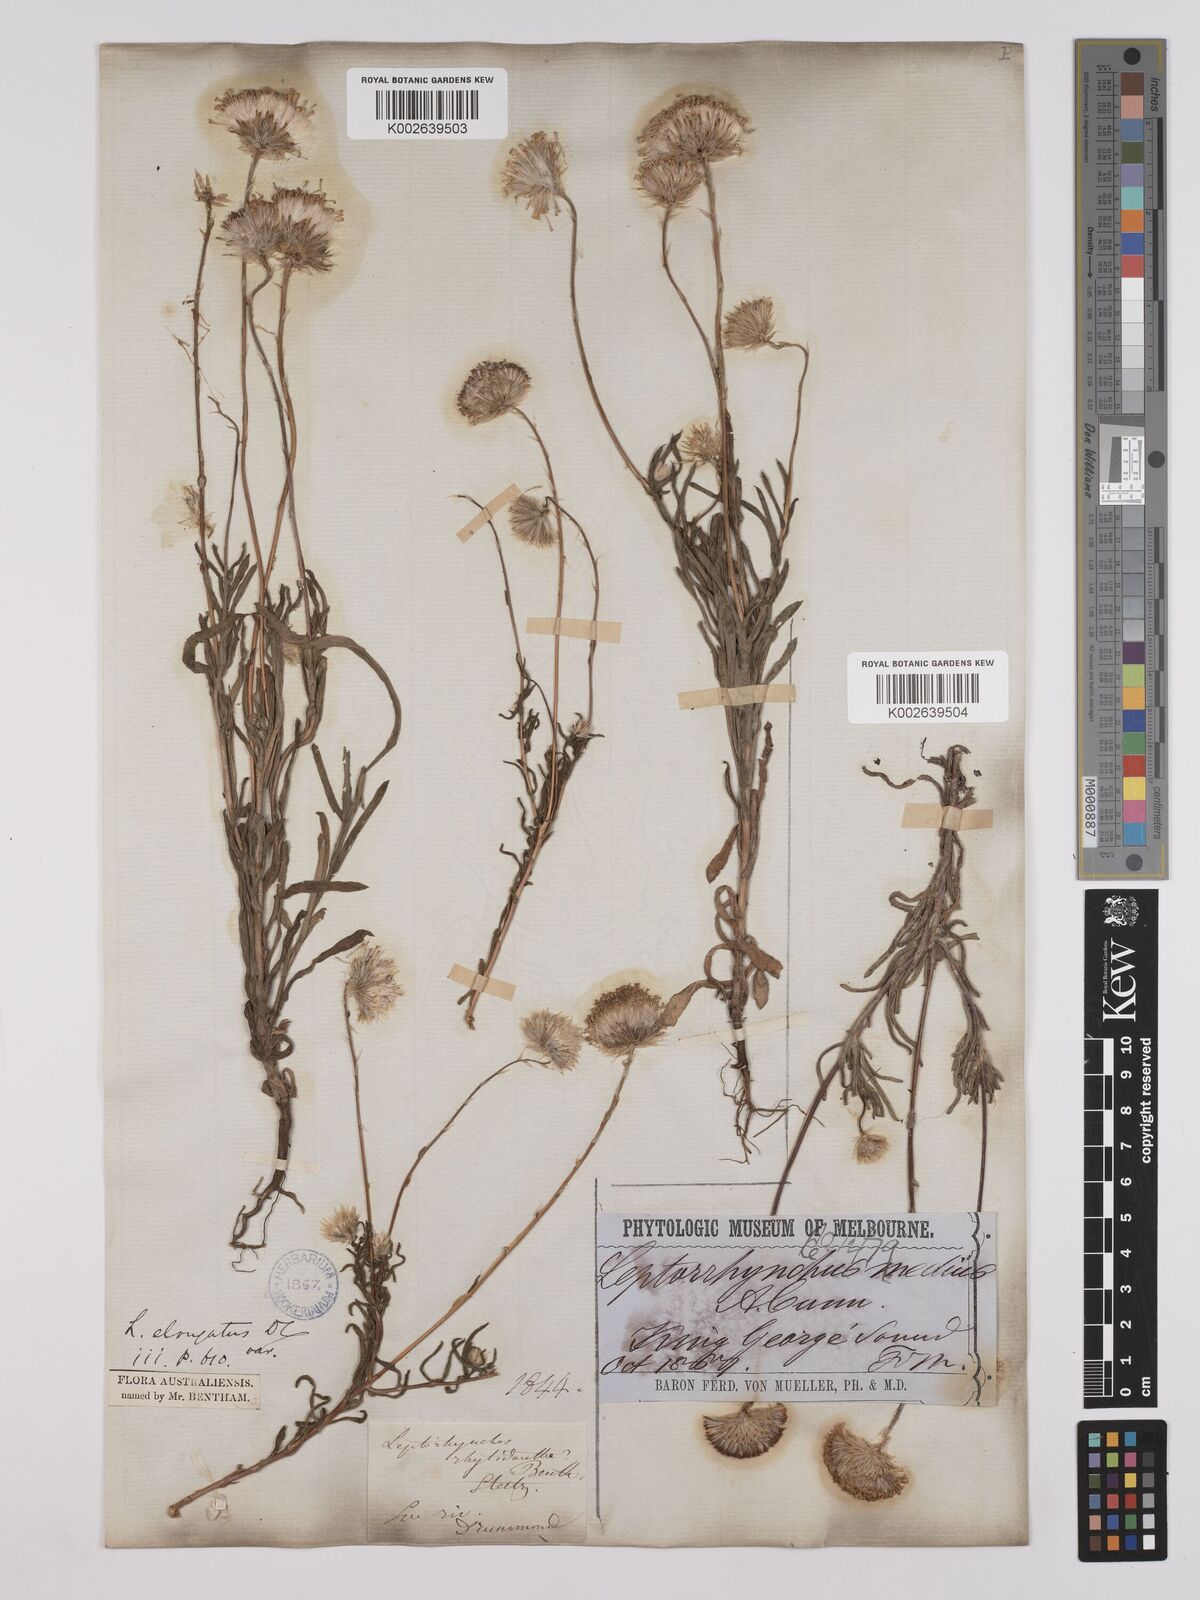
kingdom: Plantae
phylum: Tracheophyta
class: Magnoliopsida
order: Asterales
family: Asteraceae
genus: Leptorhynchos
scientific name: Leptorhynchos elongatus
